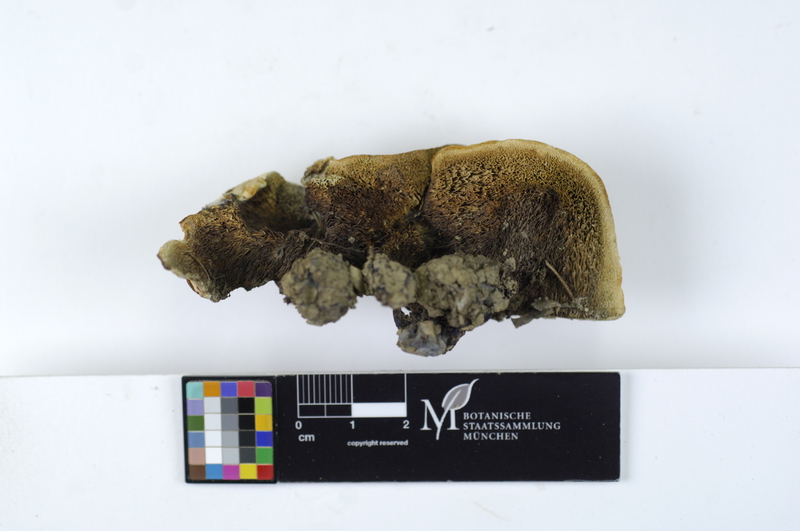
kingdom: Fungi
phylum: Basidiomycota
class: Agaricomycetes
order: Thelephorales
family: Bankeraceae
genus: Hydnellum
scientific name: Hydnellum suaveolens
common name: Sweetgrass hydnellum
